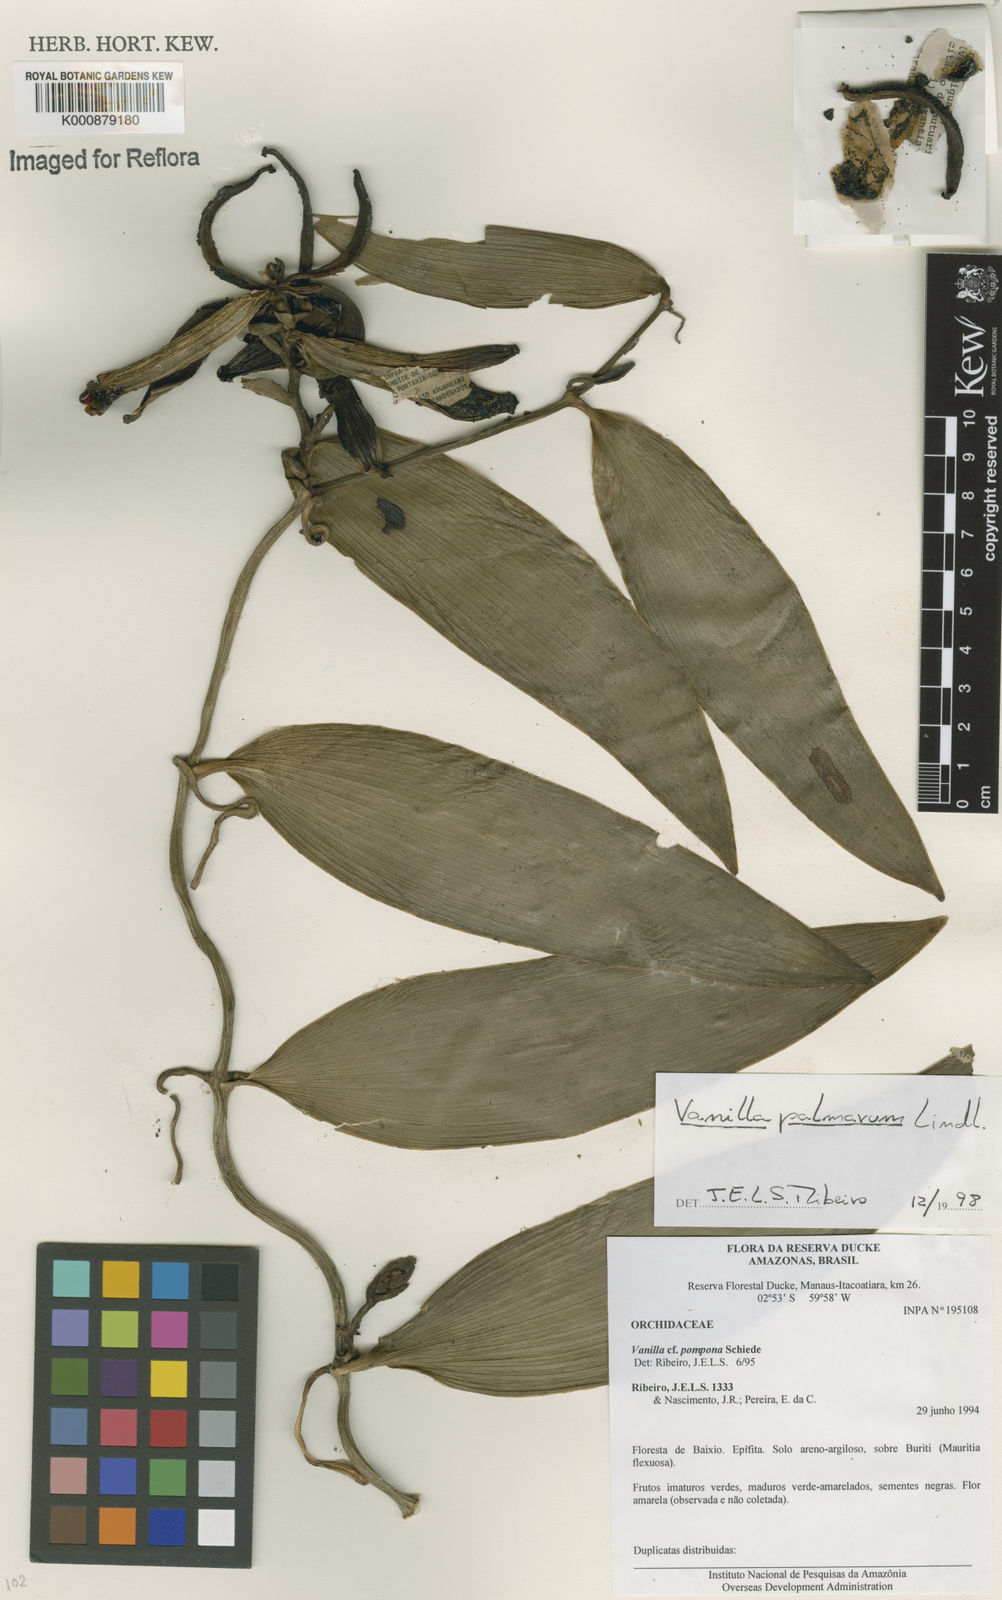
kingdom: Plantae
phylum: Tracheophyta
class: Liliopsida
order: Asparagales
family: Orchidaceae
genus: Vanilla
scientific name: Vanilla palmarum
